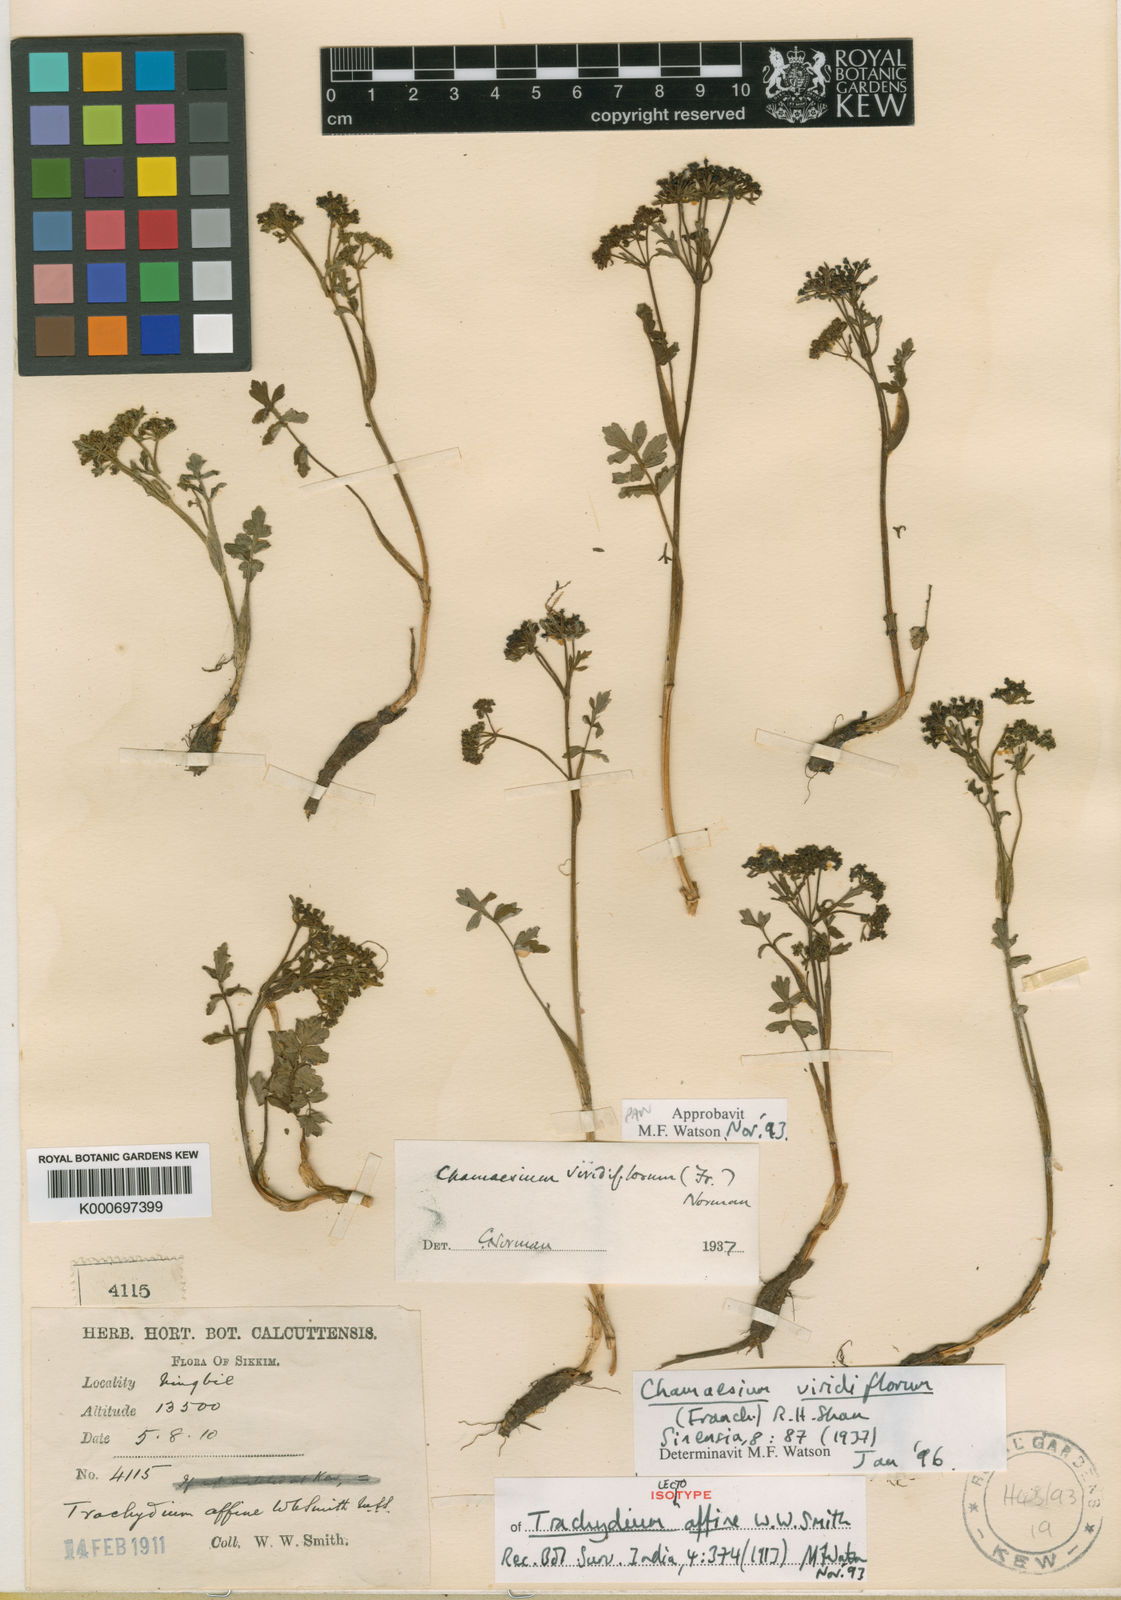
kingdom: Plantae
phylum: Tracheophyta
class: Magnoliopsida
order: Apiales
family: Apiaceae
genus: Chamaesium
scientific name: Chamaesium viridiflorum
